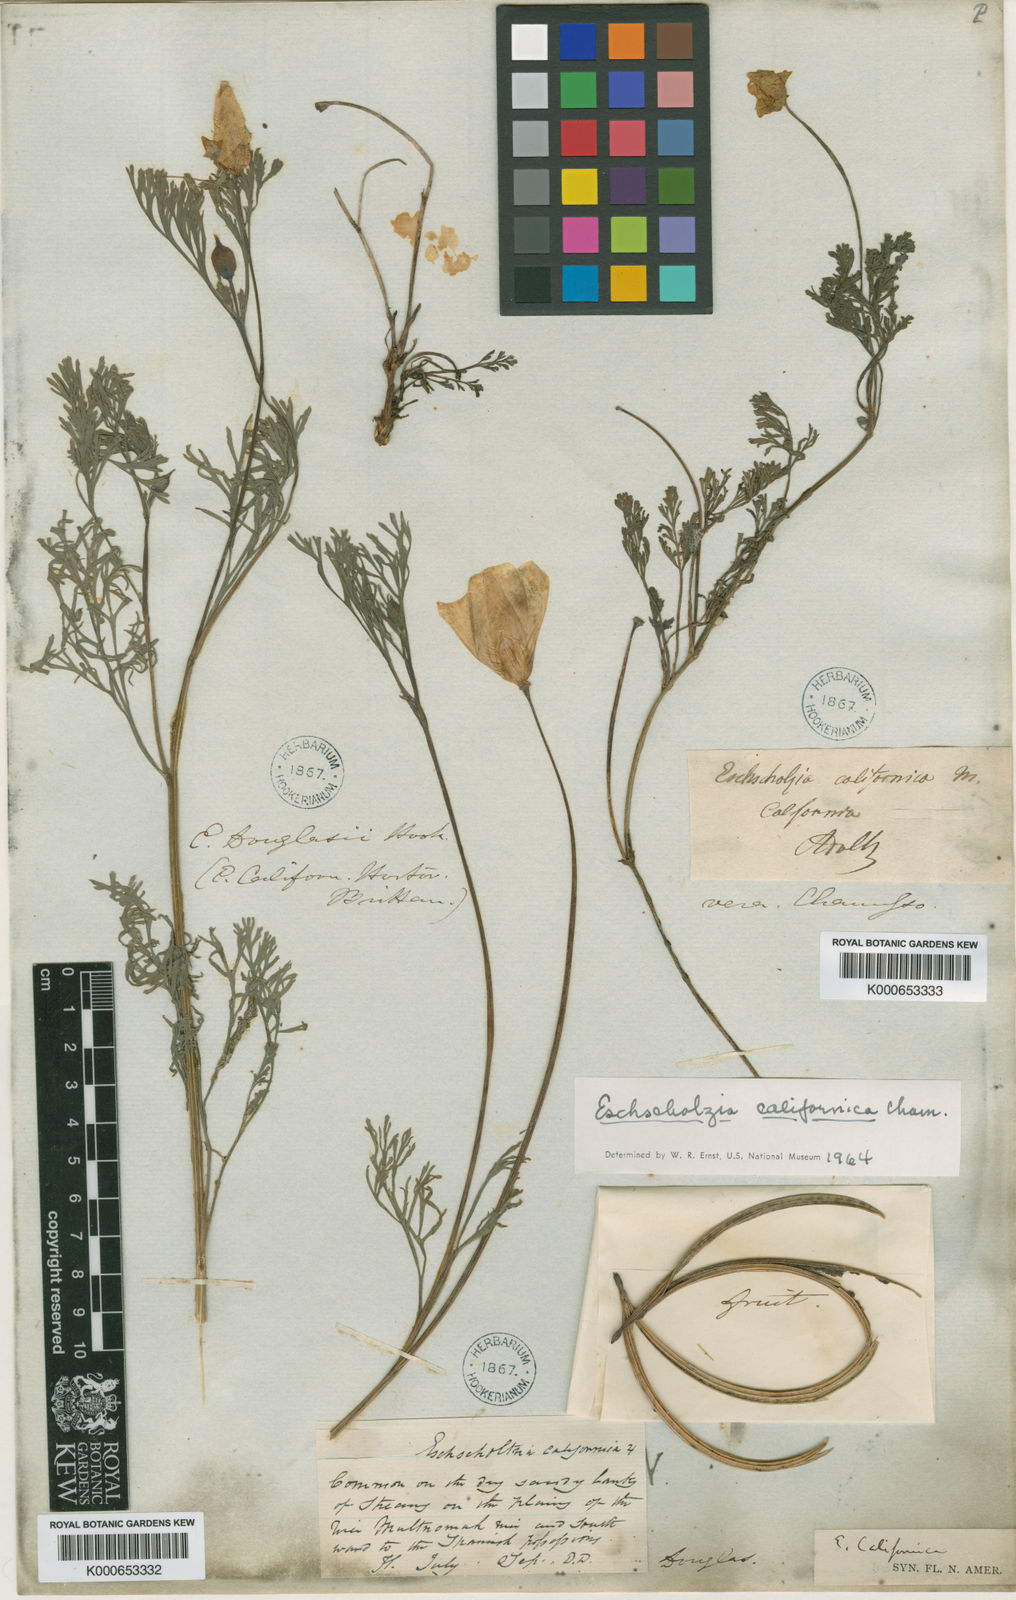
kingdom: Plantae
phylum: Tracheophyta
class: Magnoliopsida
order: Ranunculales
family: Papaveraceae
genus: Eschscholzia
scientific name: Eschscholzia californica
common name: California poppy
